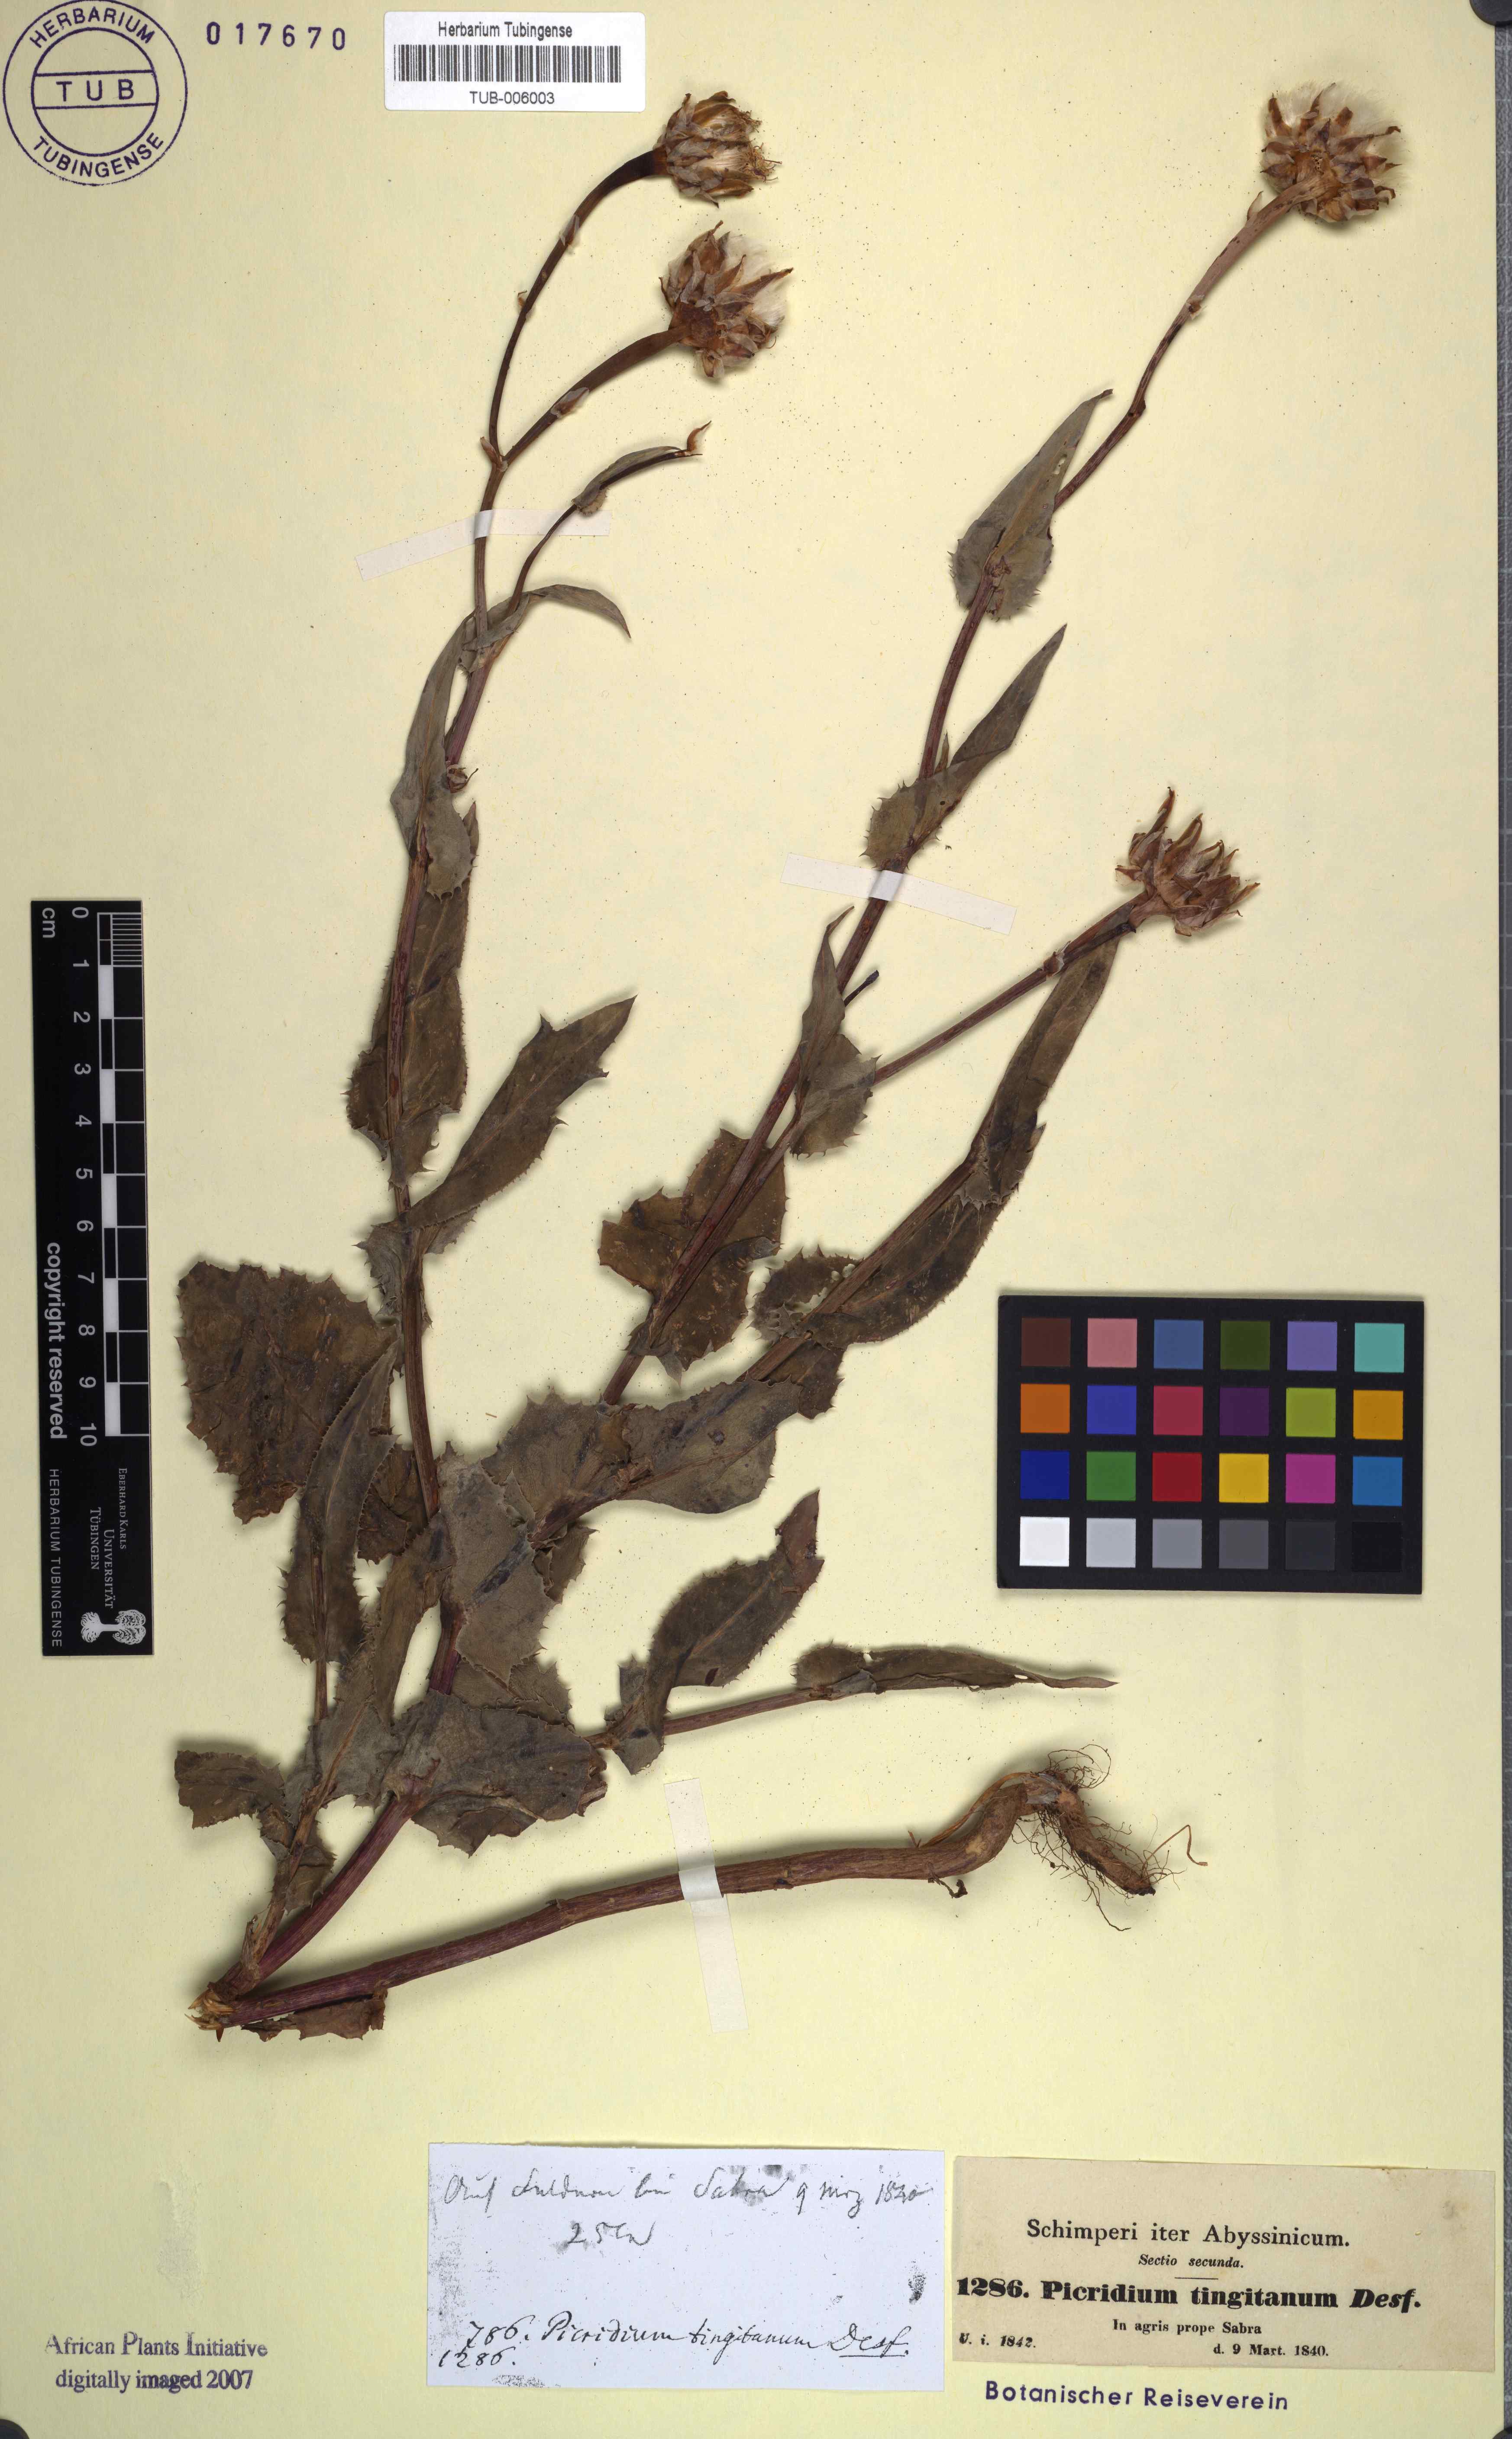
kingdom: Plantae
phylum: Tracheophyta
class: Magnoliopsida
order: Asterales
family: Asteraceae
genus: Reichardia
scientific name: Reichardia tingitana
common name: Reichardia
